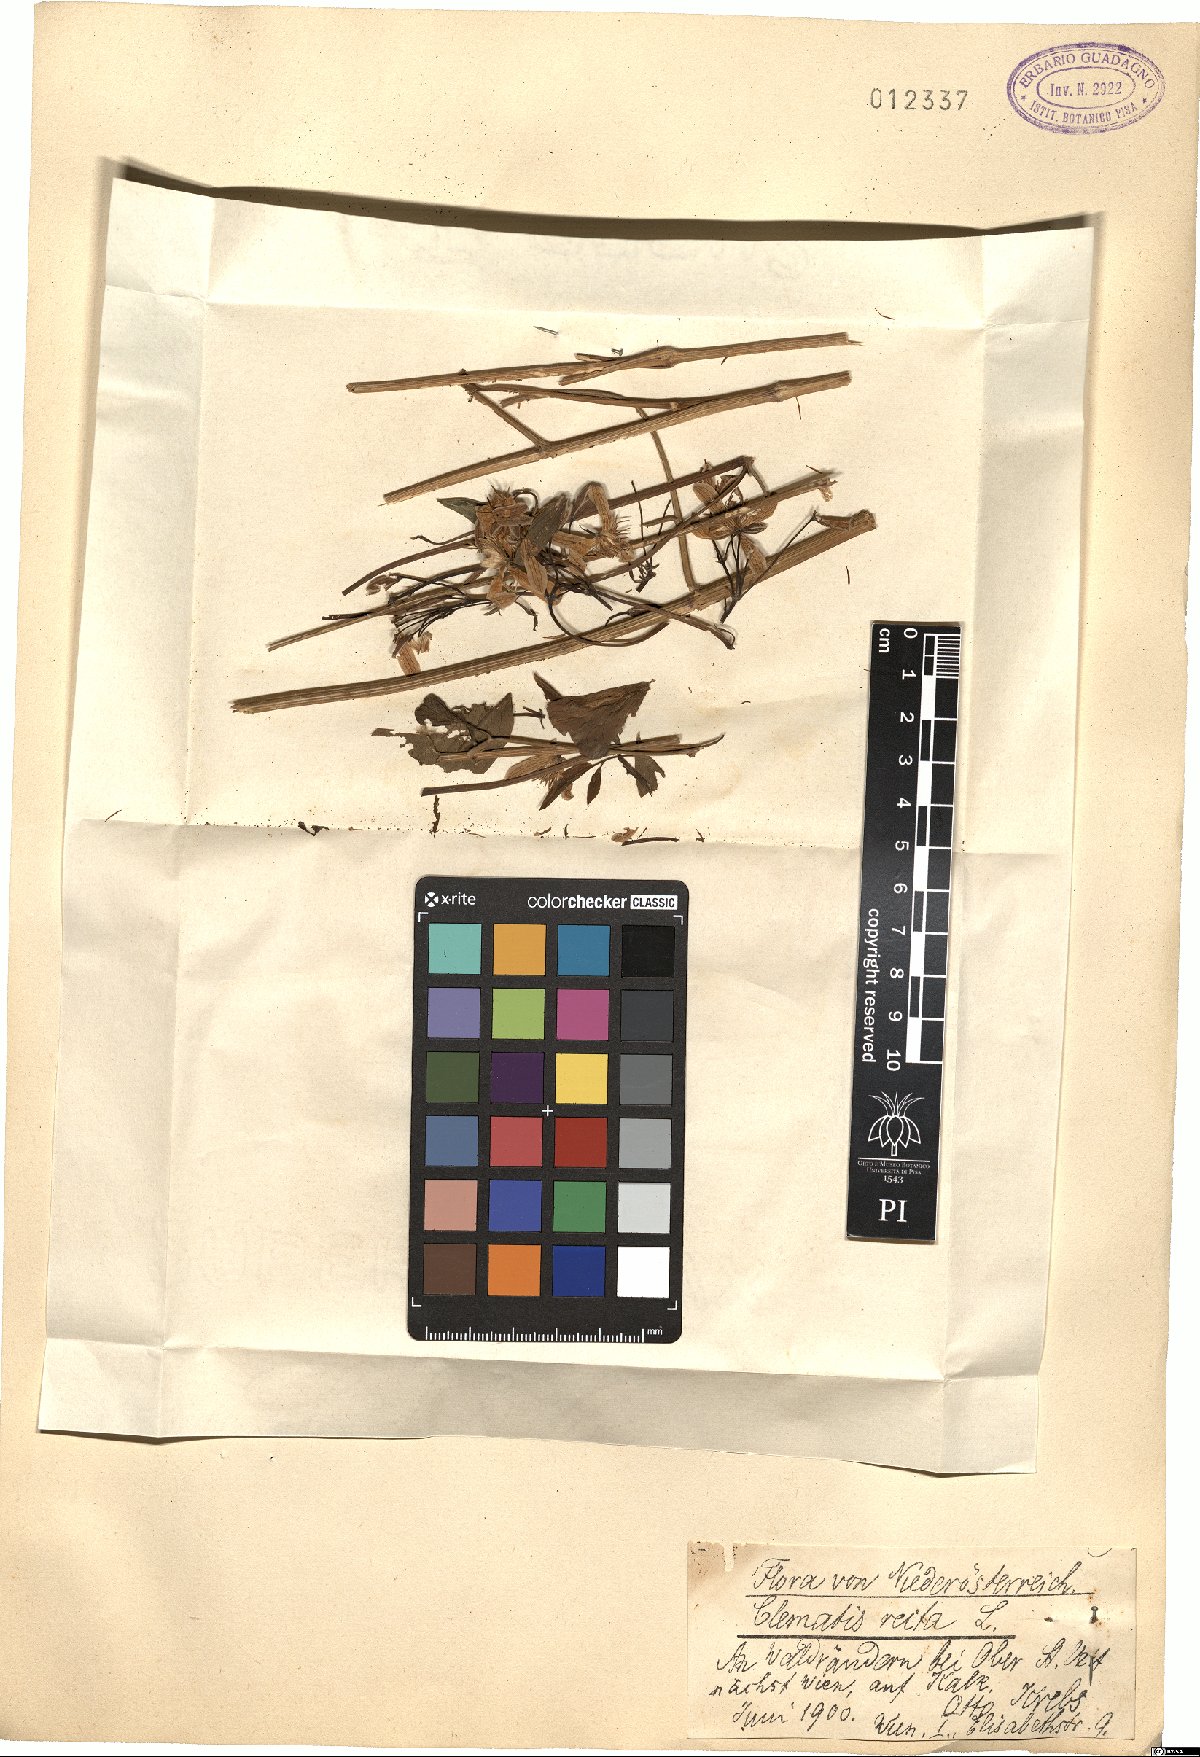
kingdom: Plantae
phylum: Tracheophyta
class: Magnoliopsida
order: Ranunculales
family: Ranunculaceae
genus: Clematis
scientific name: Clematis recta
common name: Ground clematis
